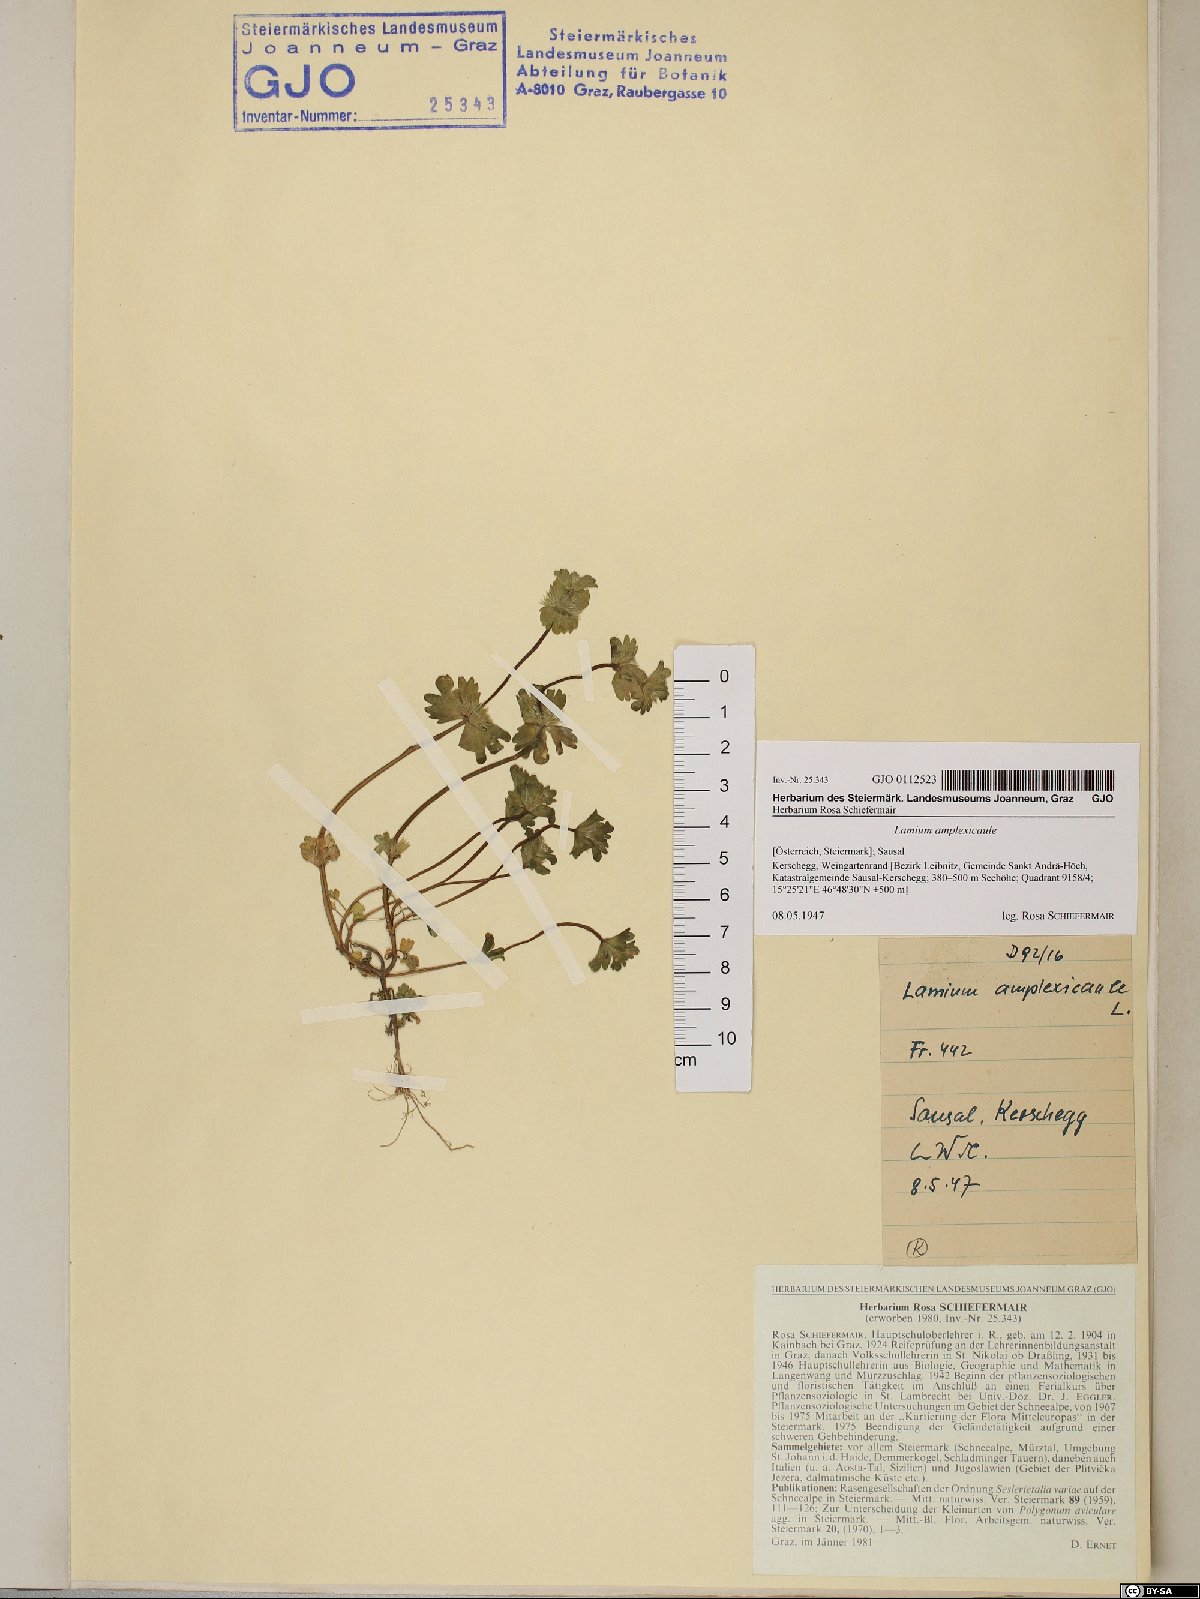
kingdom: Plantae
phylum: Tracheophyta
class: Magnoliopsida
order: Lamiales
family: Lamiaceae
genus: Lamium
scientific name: Lamium amplexicaule
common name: Henbit dead-nettle
